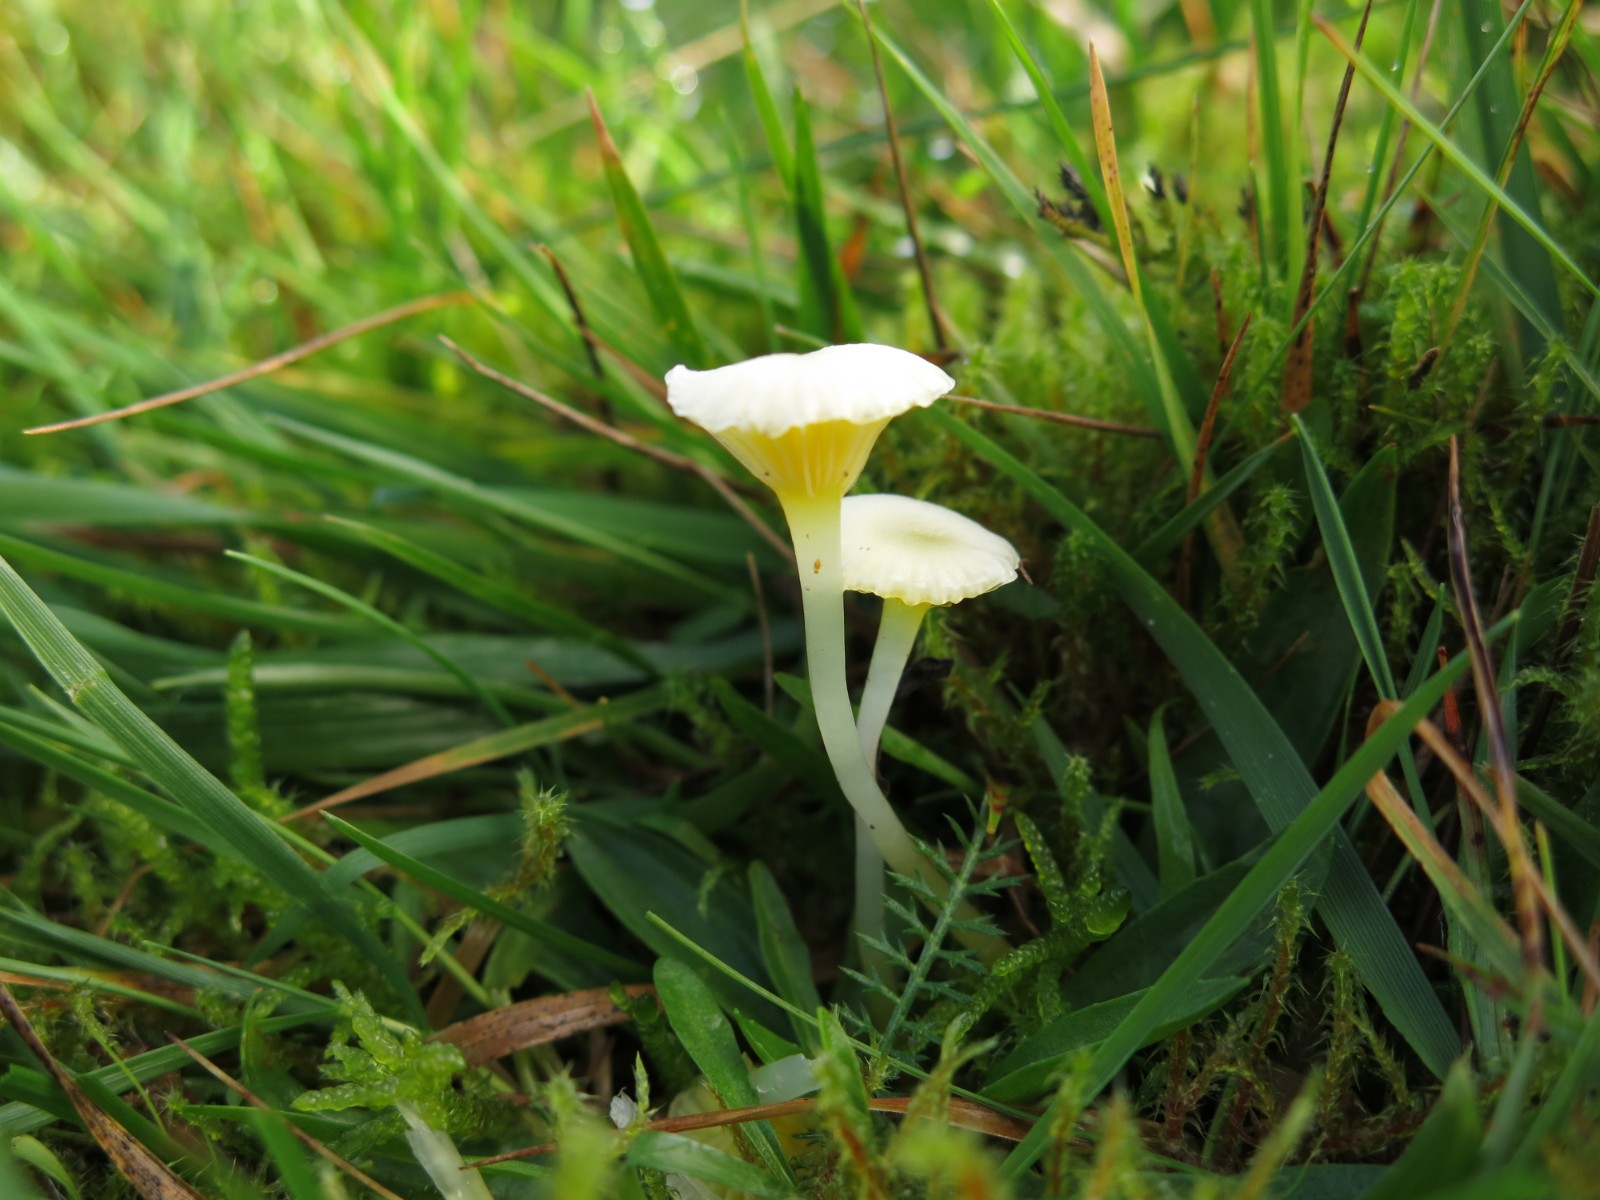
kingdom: Fungi
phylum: Basidiomycota
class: Agaricomycetes
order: Agaricales
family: Hygrophoraceae
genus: Gloioxanthomyces
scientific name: Gloioxanthomyces vitellinus
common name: kromgul vokshat
